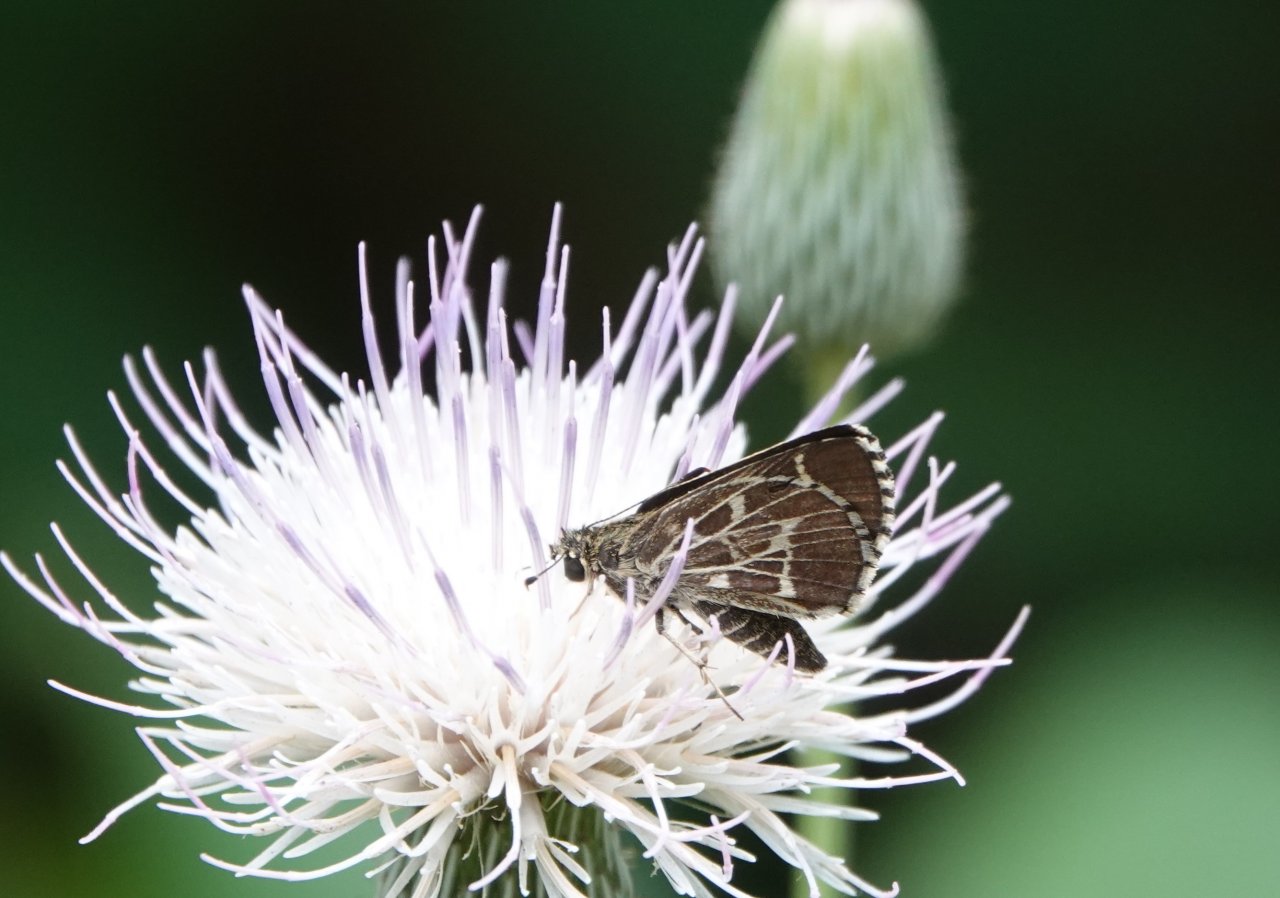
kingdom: Animalia
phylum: Arthropoda
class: Insecta
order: Lepidoptera
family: Hesperiidae
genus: Lerema
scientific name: Lerema accius
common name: Clouded Skipper
